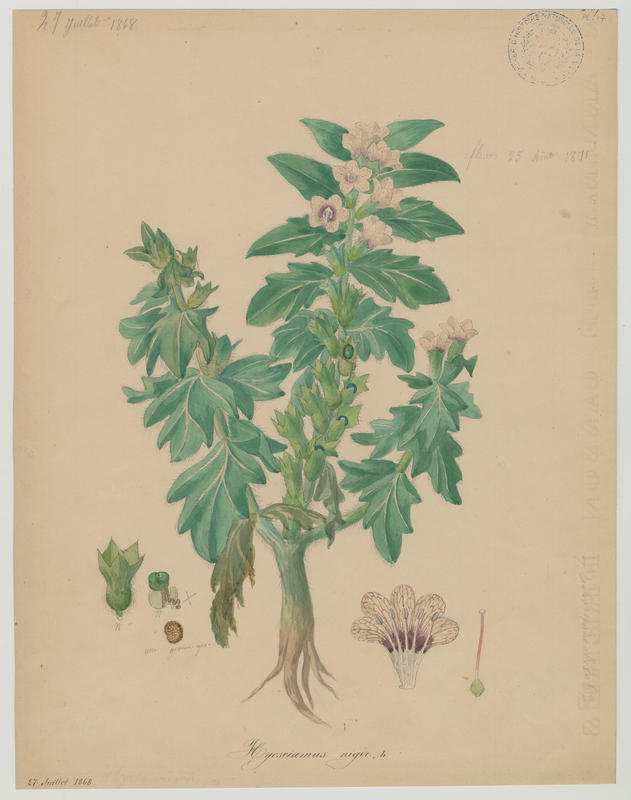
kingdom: Plantae
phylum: Tracheophyta
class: Magnoliopsida
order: Solanales
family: Solanaceae
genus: Hyoscyamus
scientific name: Hyoscyamus niger
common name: Henbane
